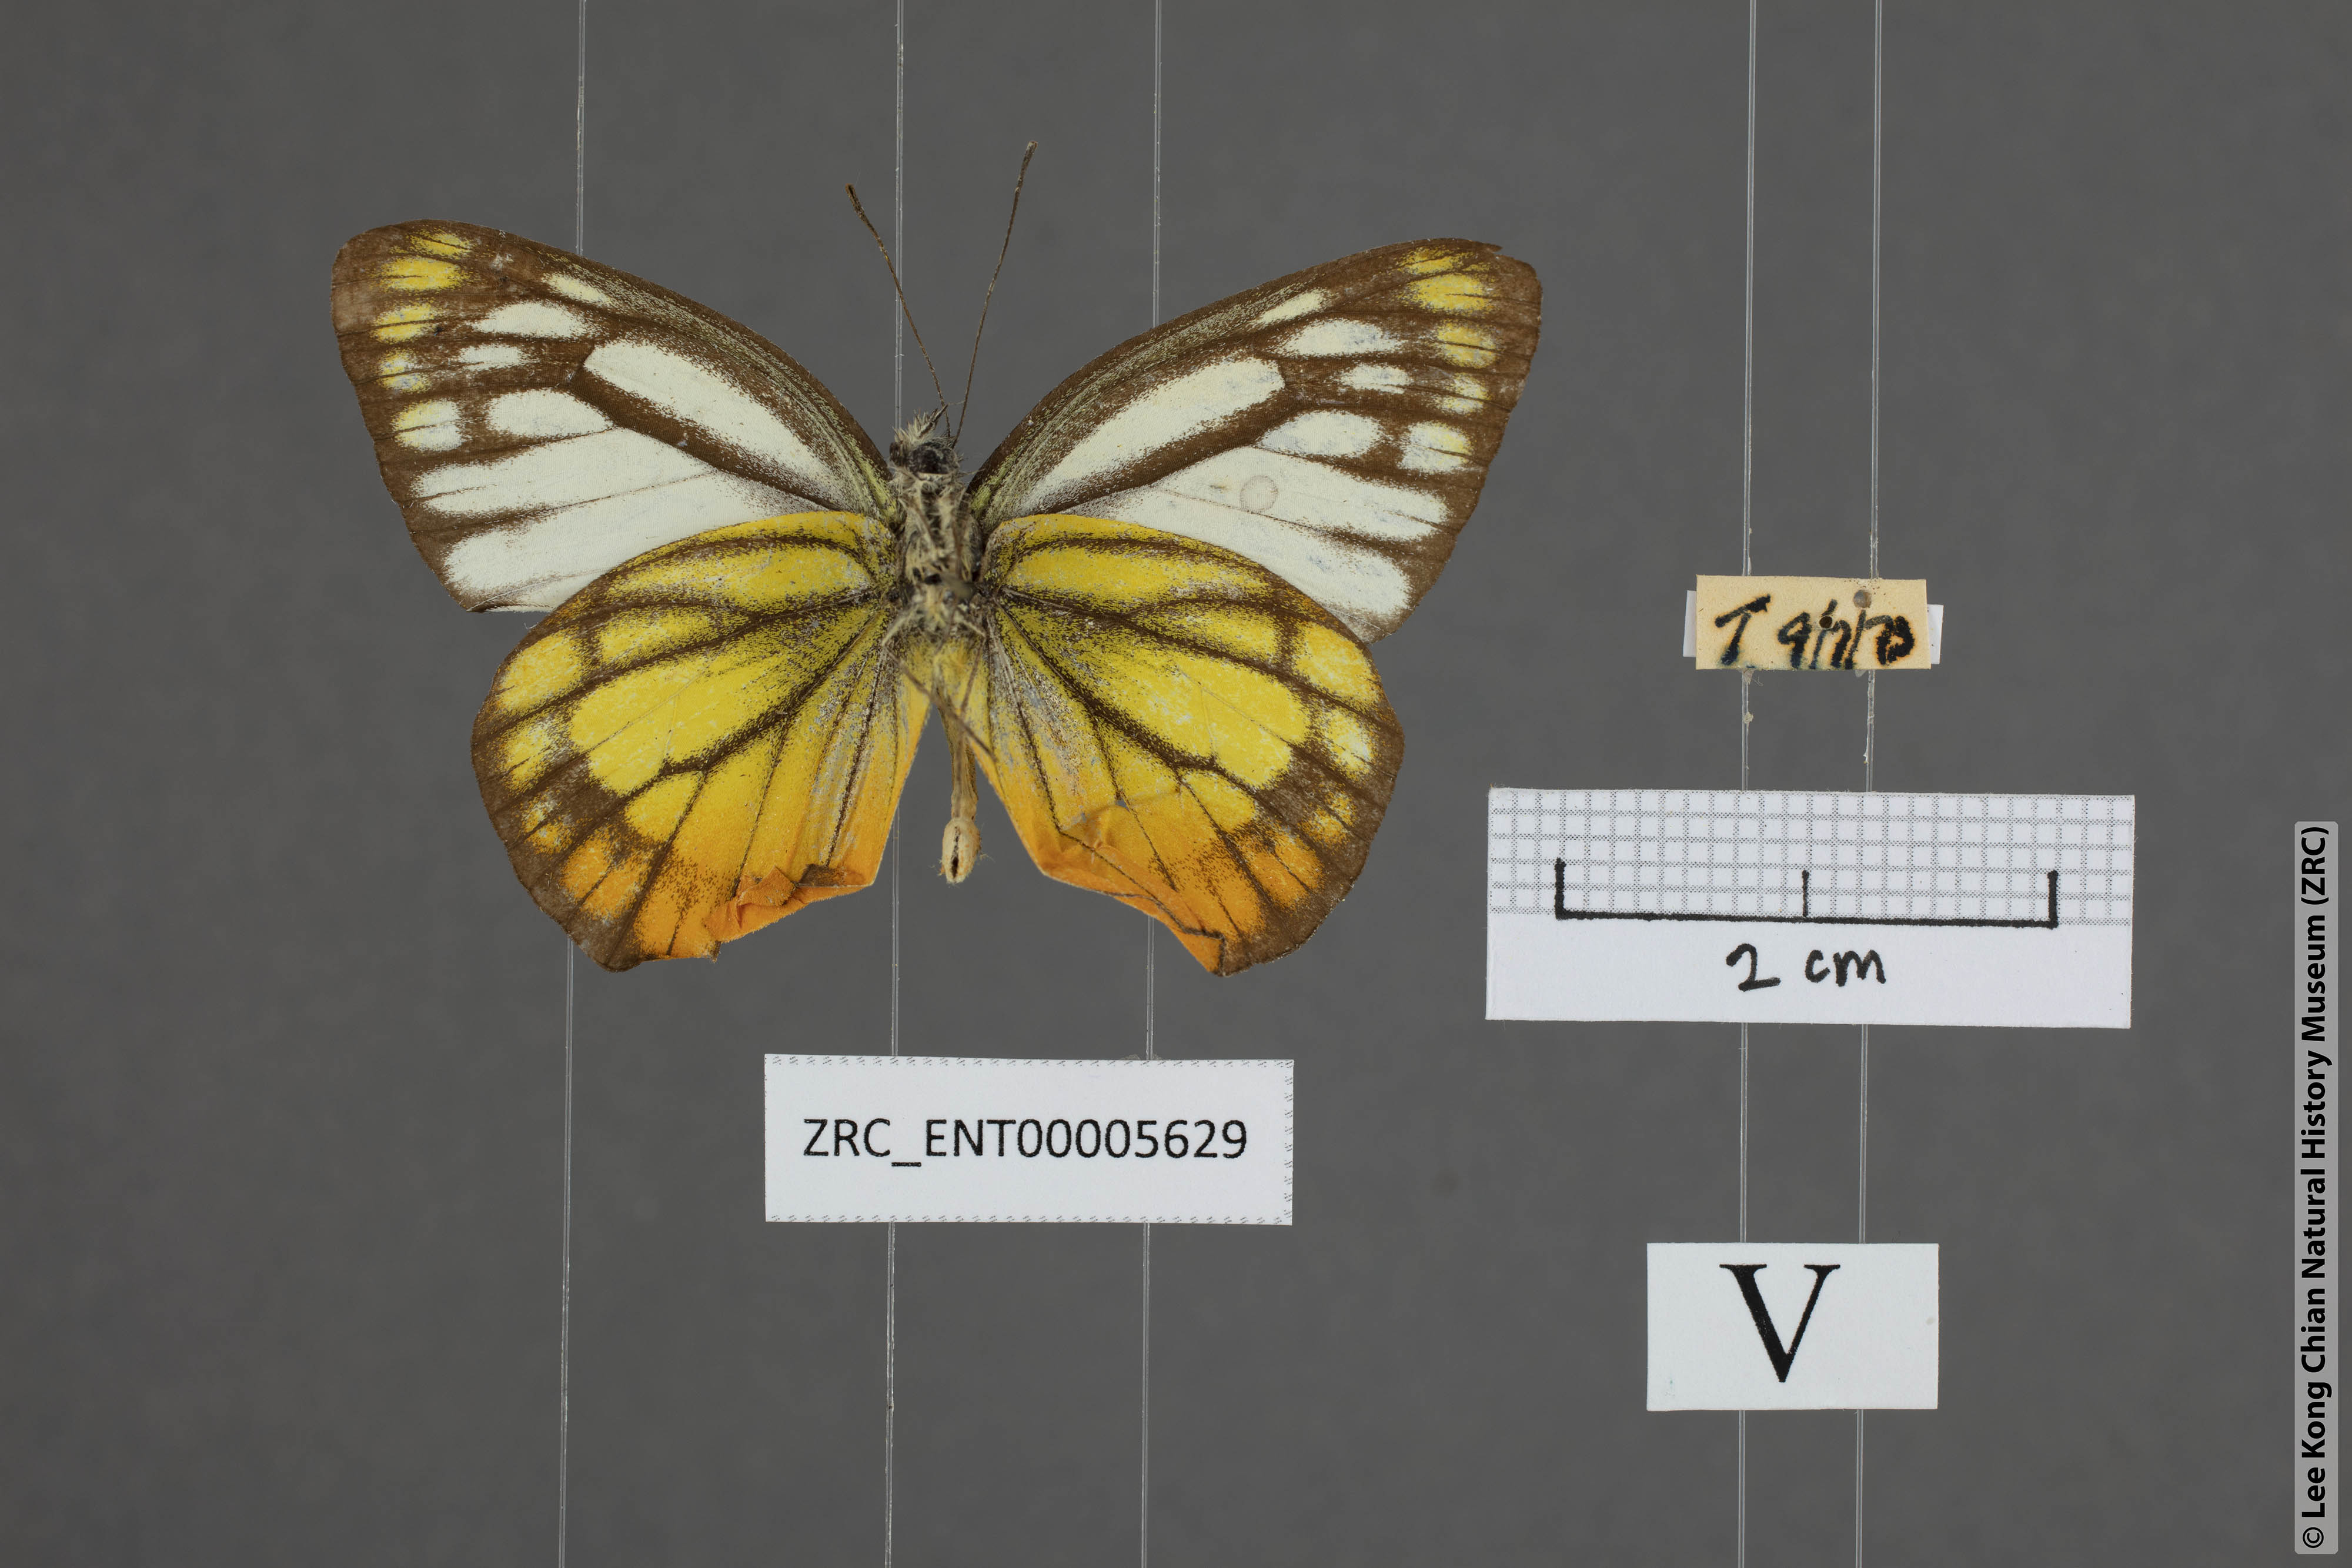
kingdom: Animalia
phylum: Arthropoda
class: Insecta
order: Lepidoptera
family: Pieridae
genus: Cepora
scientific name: Cepora iudith
